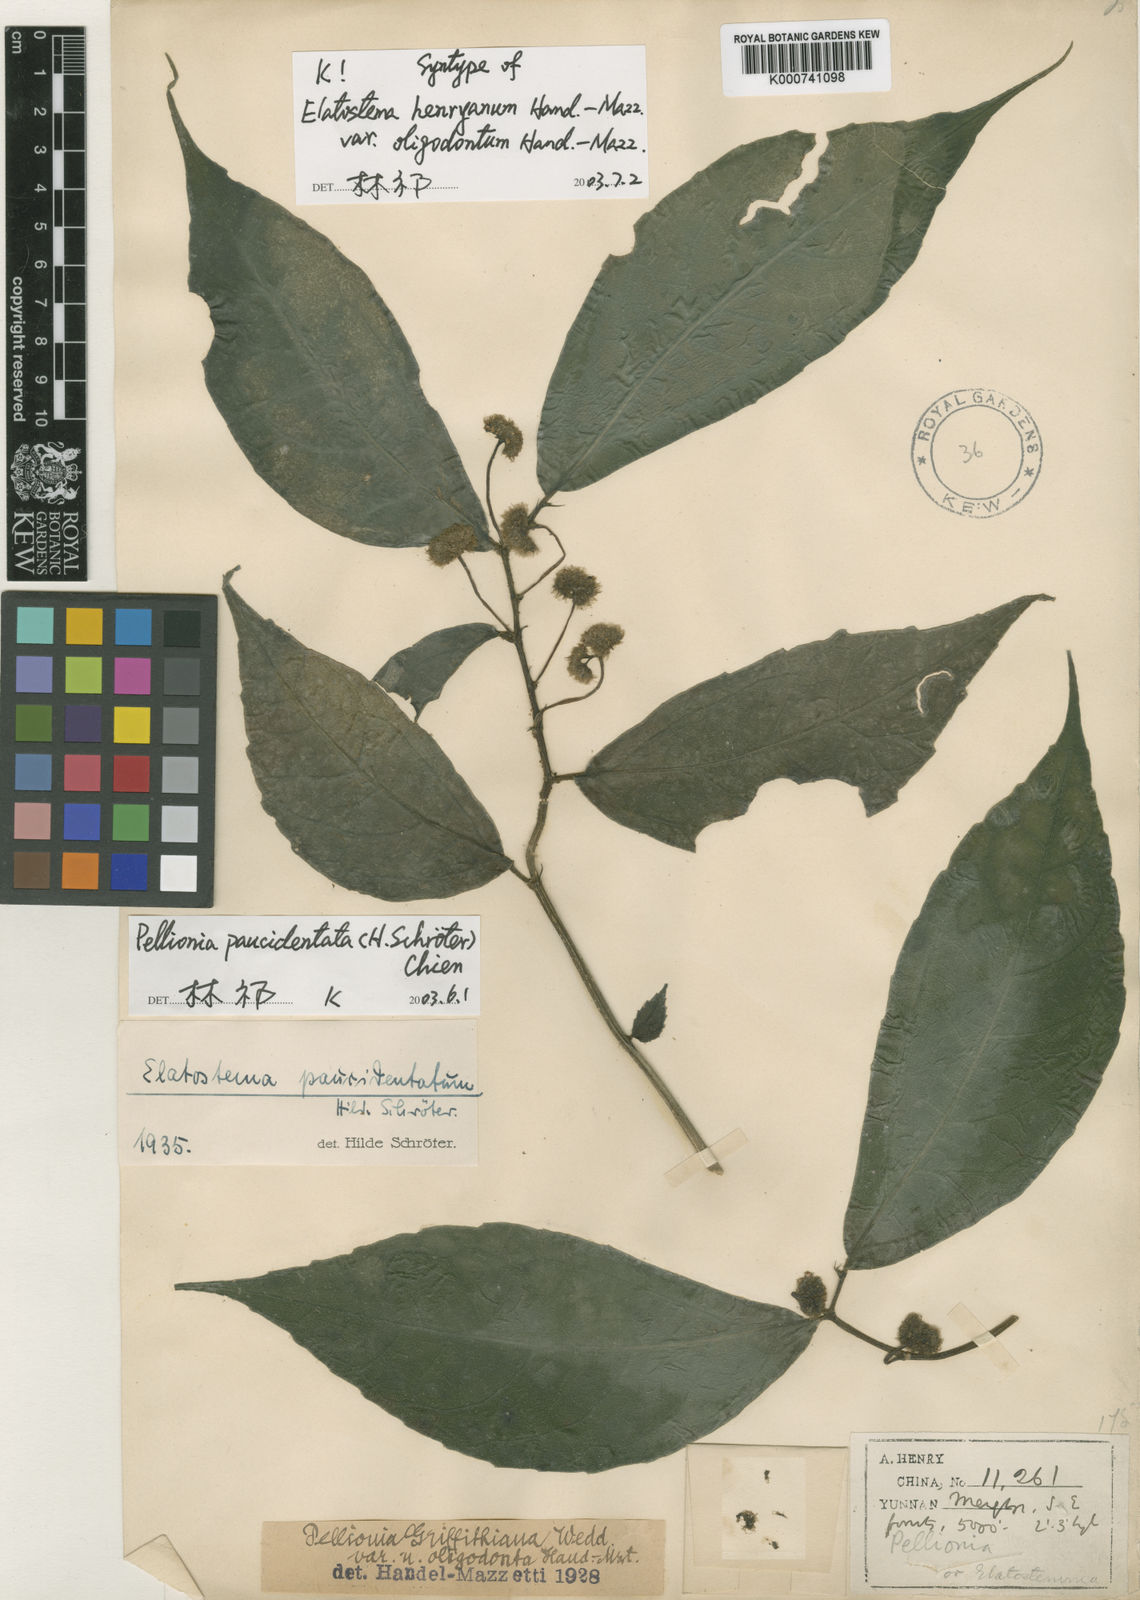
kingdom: Plantae
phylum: Tracheophyta
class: Magnoliopsida
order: Rosales
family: Urticaceae
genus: Elatostema
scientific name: Elatostema paucidentatum
